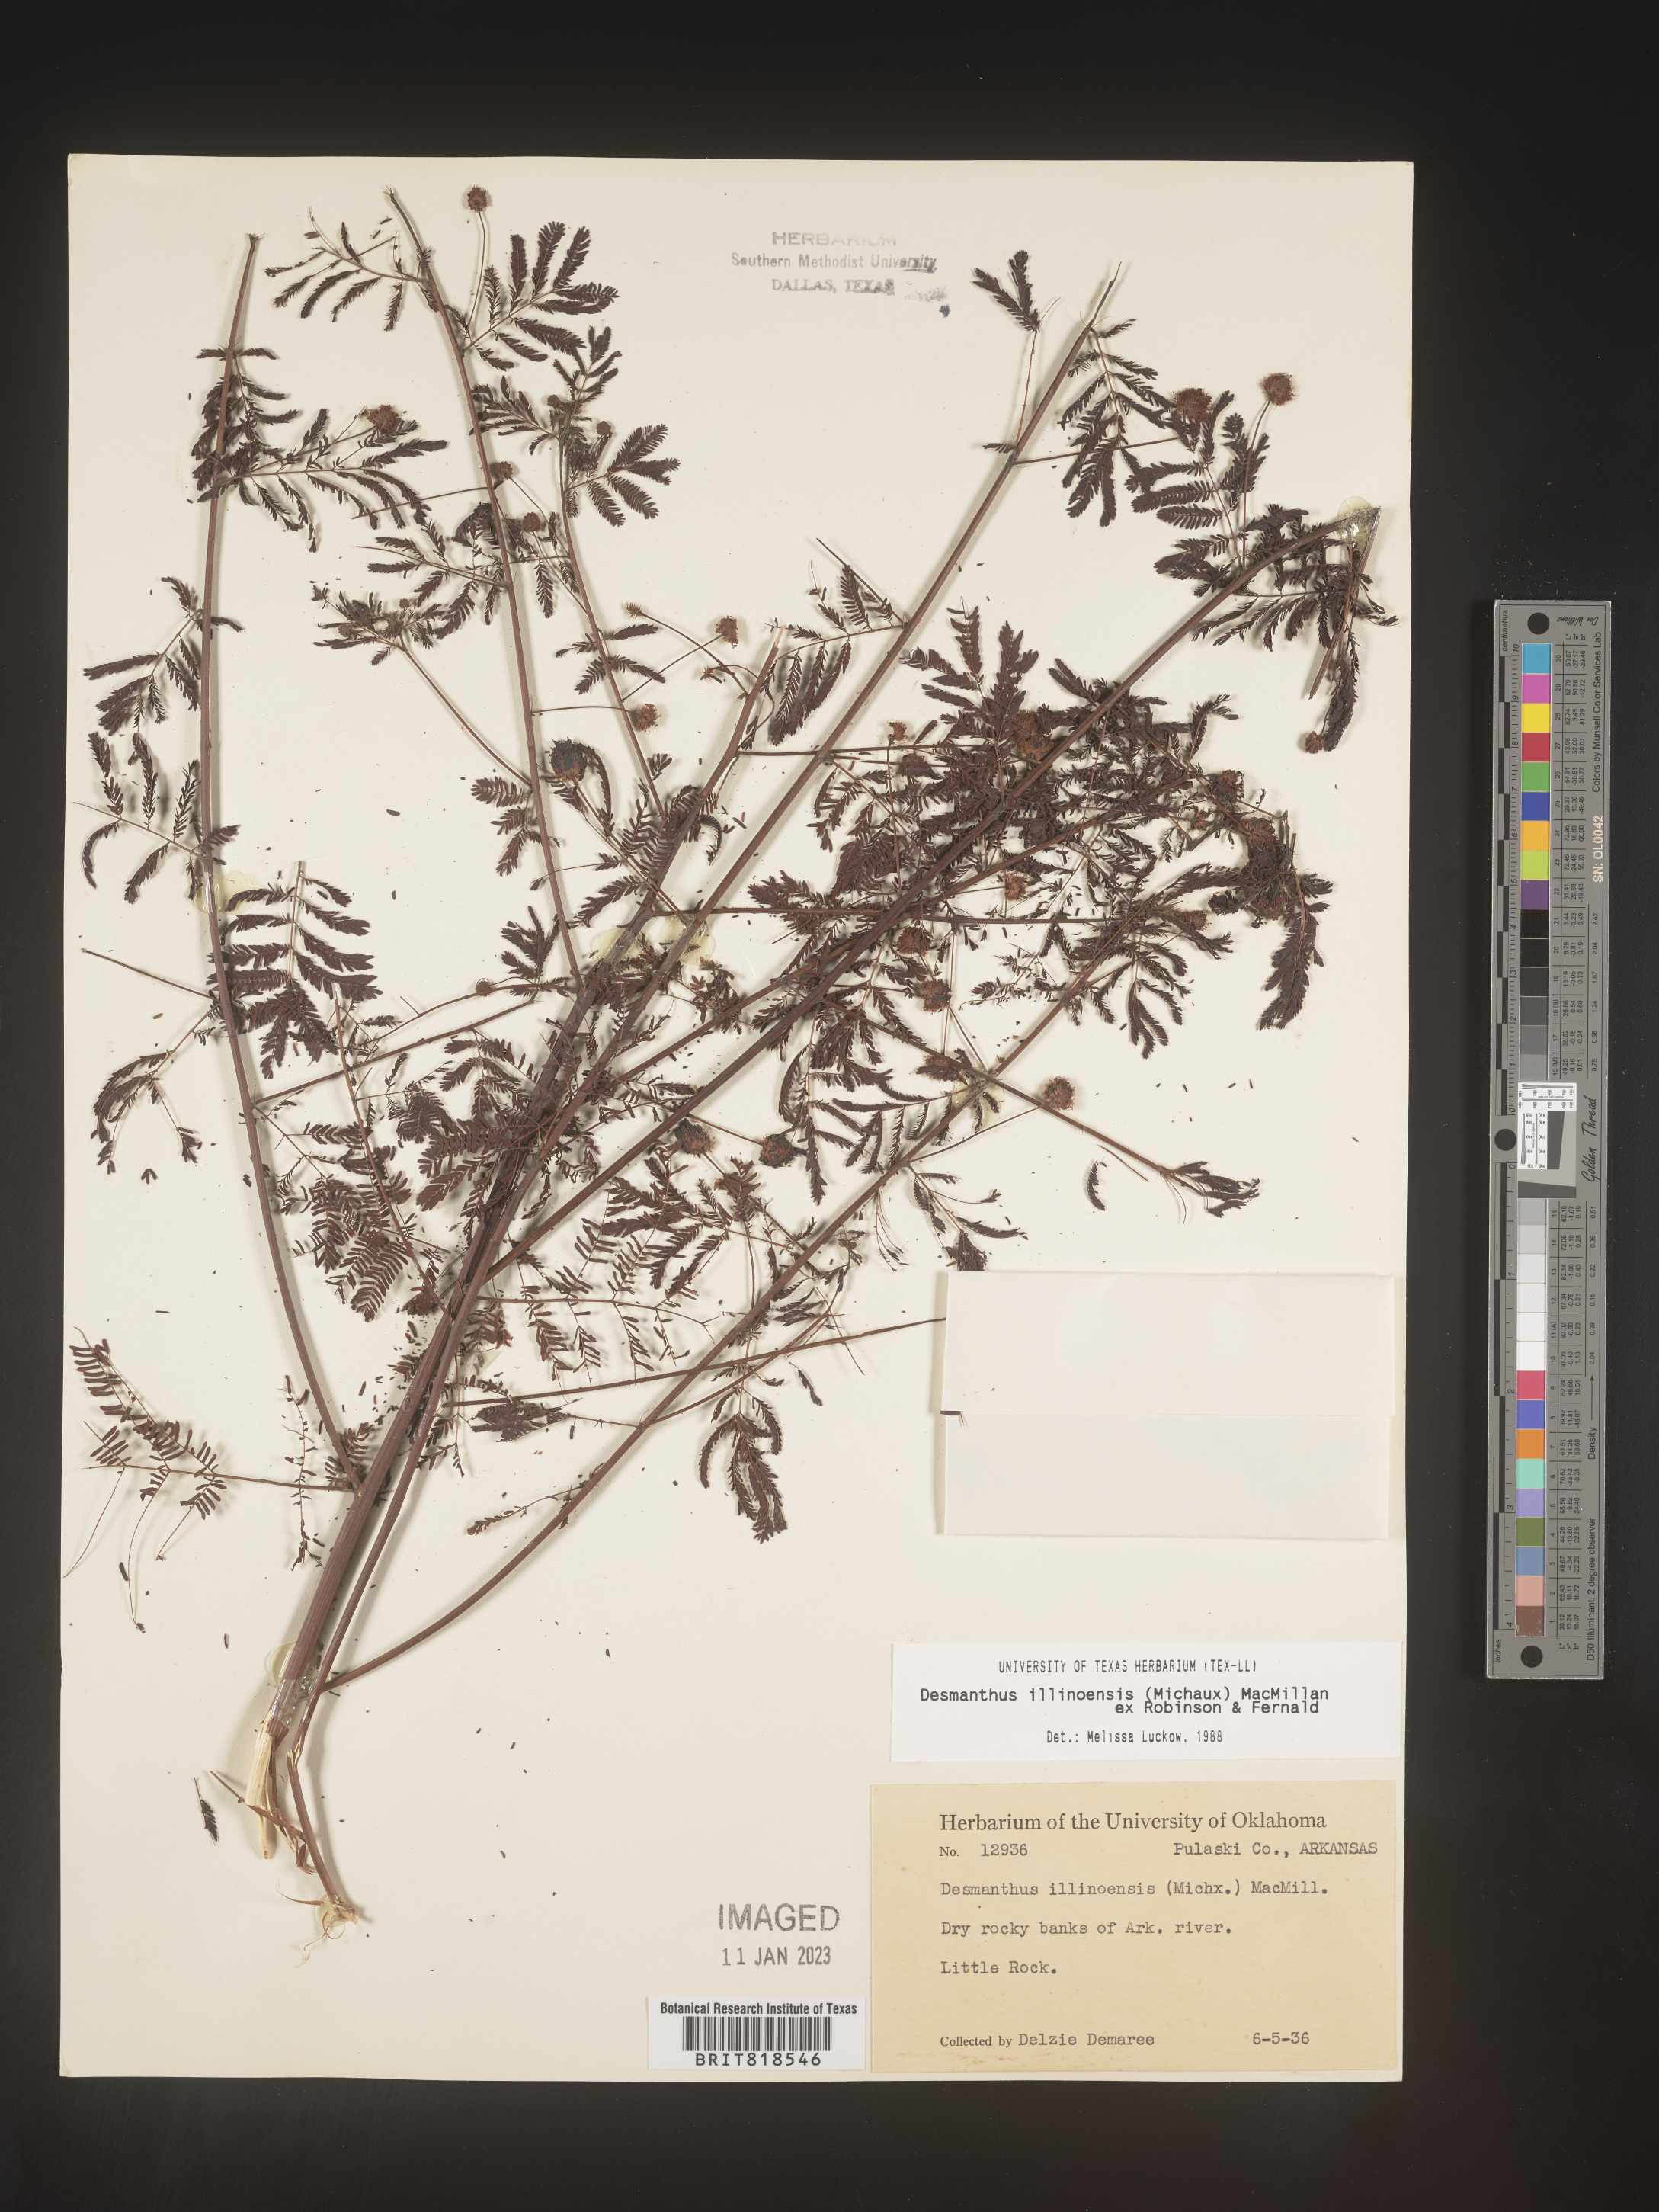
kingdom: Plantae
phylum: Tracheophyta
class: Magnoliopsida
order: Fabales
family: Fabaceae
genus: Desmanthus
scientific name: Desmanthus illinoensis
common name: Illinois bundle-flower
